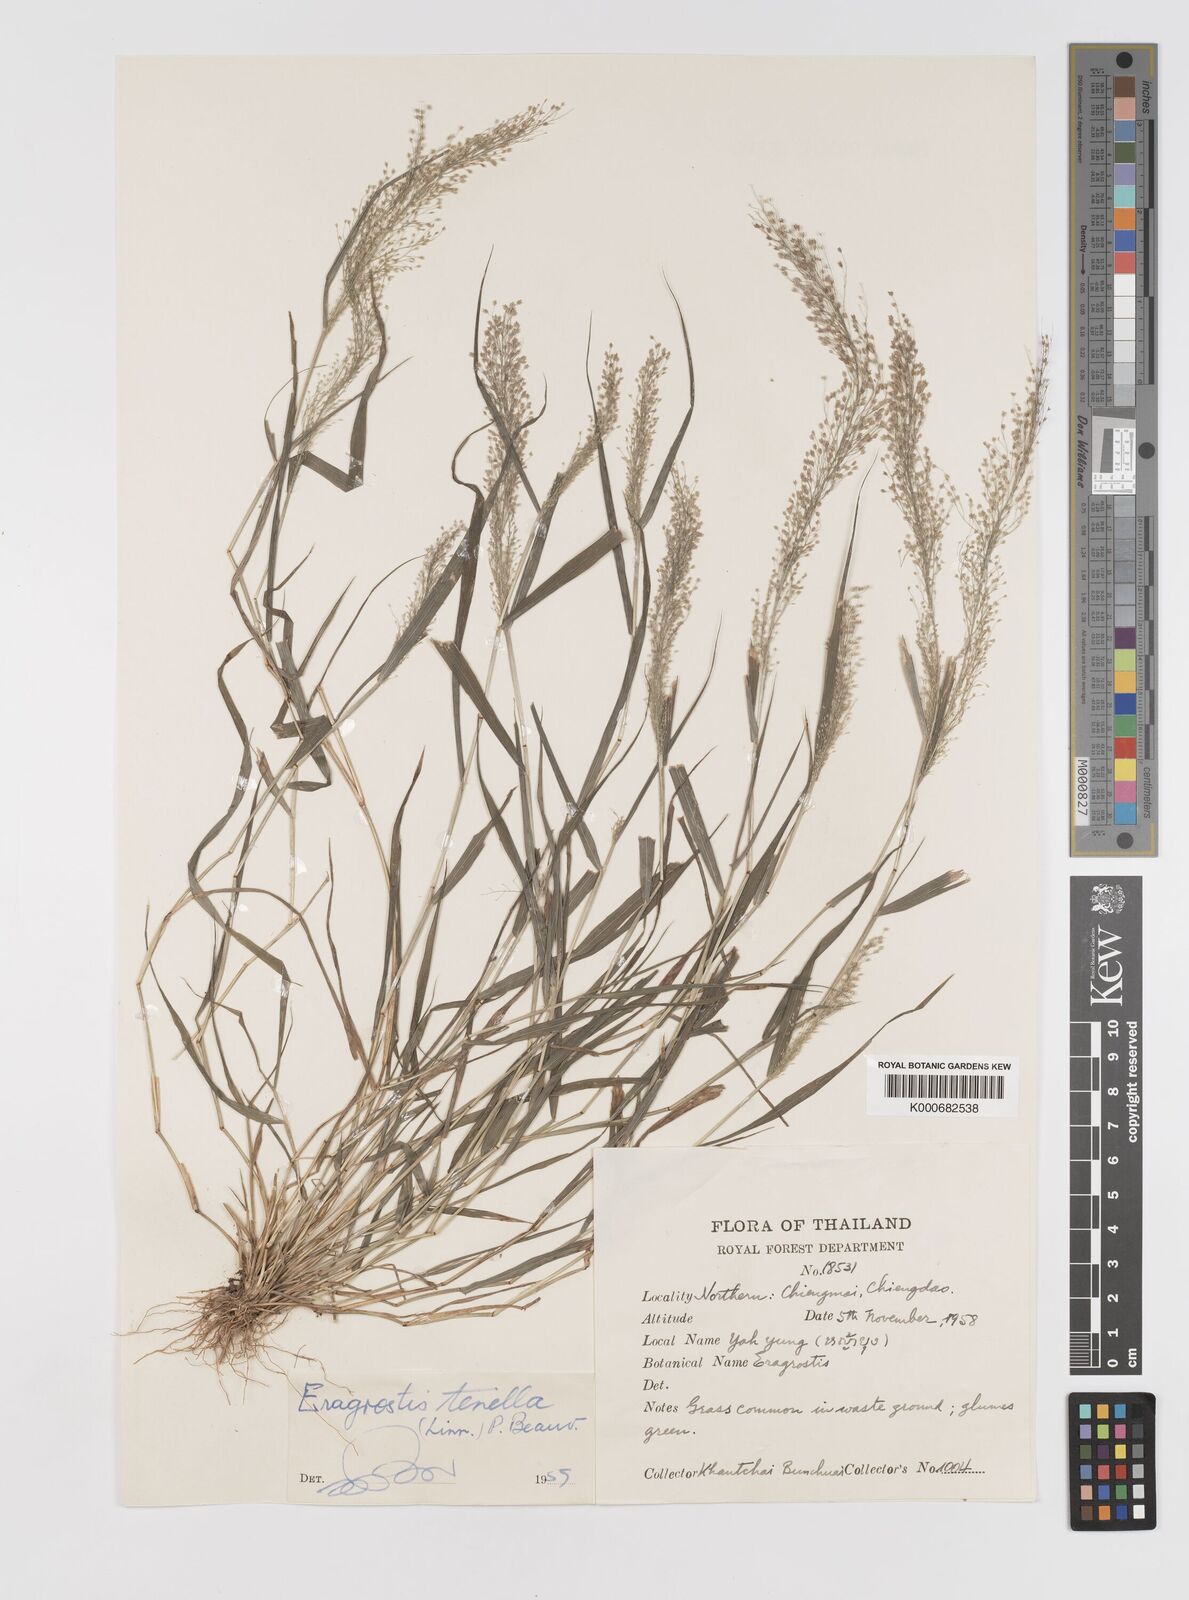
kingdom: Plantae
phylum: Tracheophyta
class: Liliopsida
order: Poales
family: Poaceae
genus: Eragrostis
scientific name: Eragrostis tenella
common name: Japanese lovegrass
